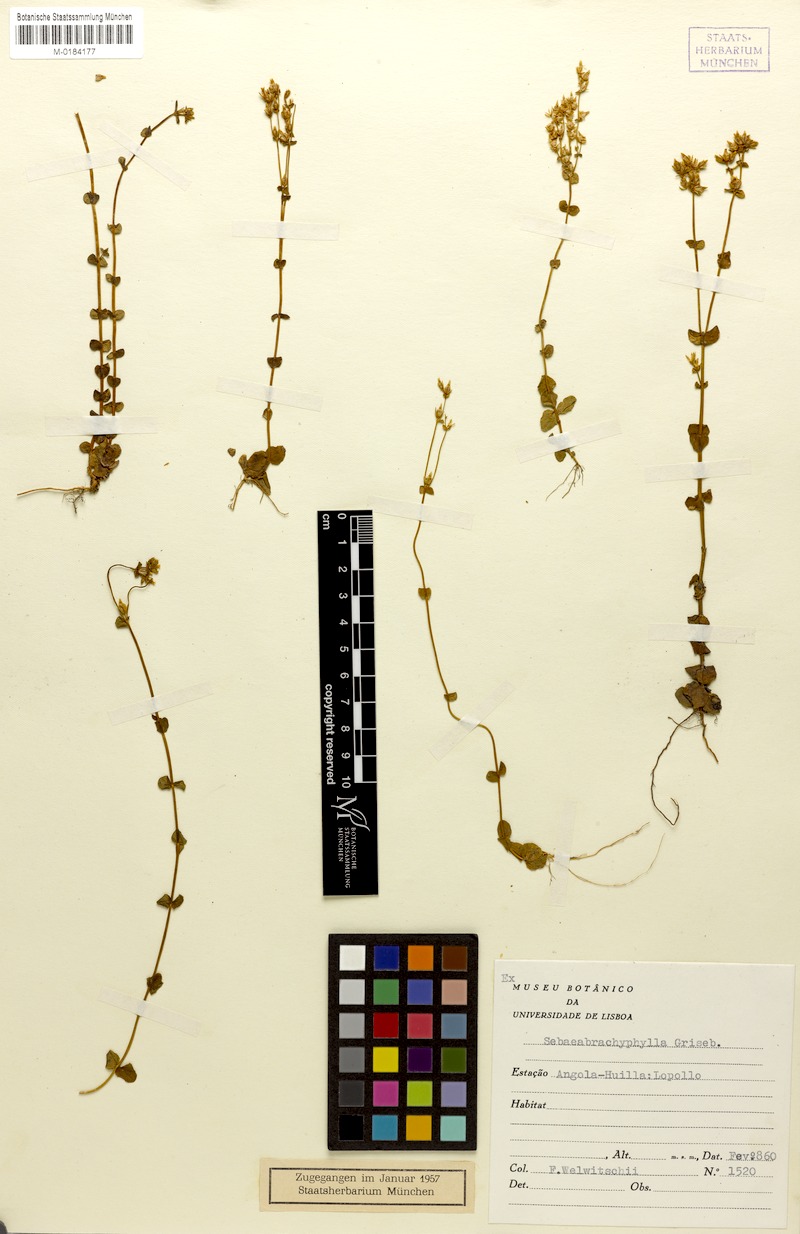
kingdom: Plantae
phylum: Tracheophyta
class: Magnoliopsida
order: Gentianales
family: Gentianaceae
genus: Sebaea
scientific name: Sebaea brachyphylla
